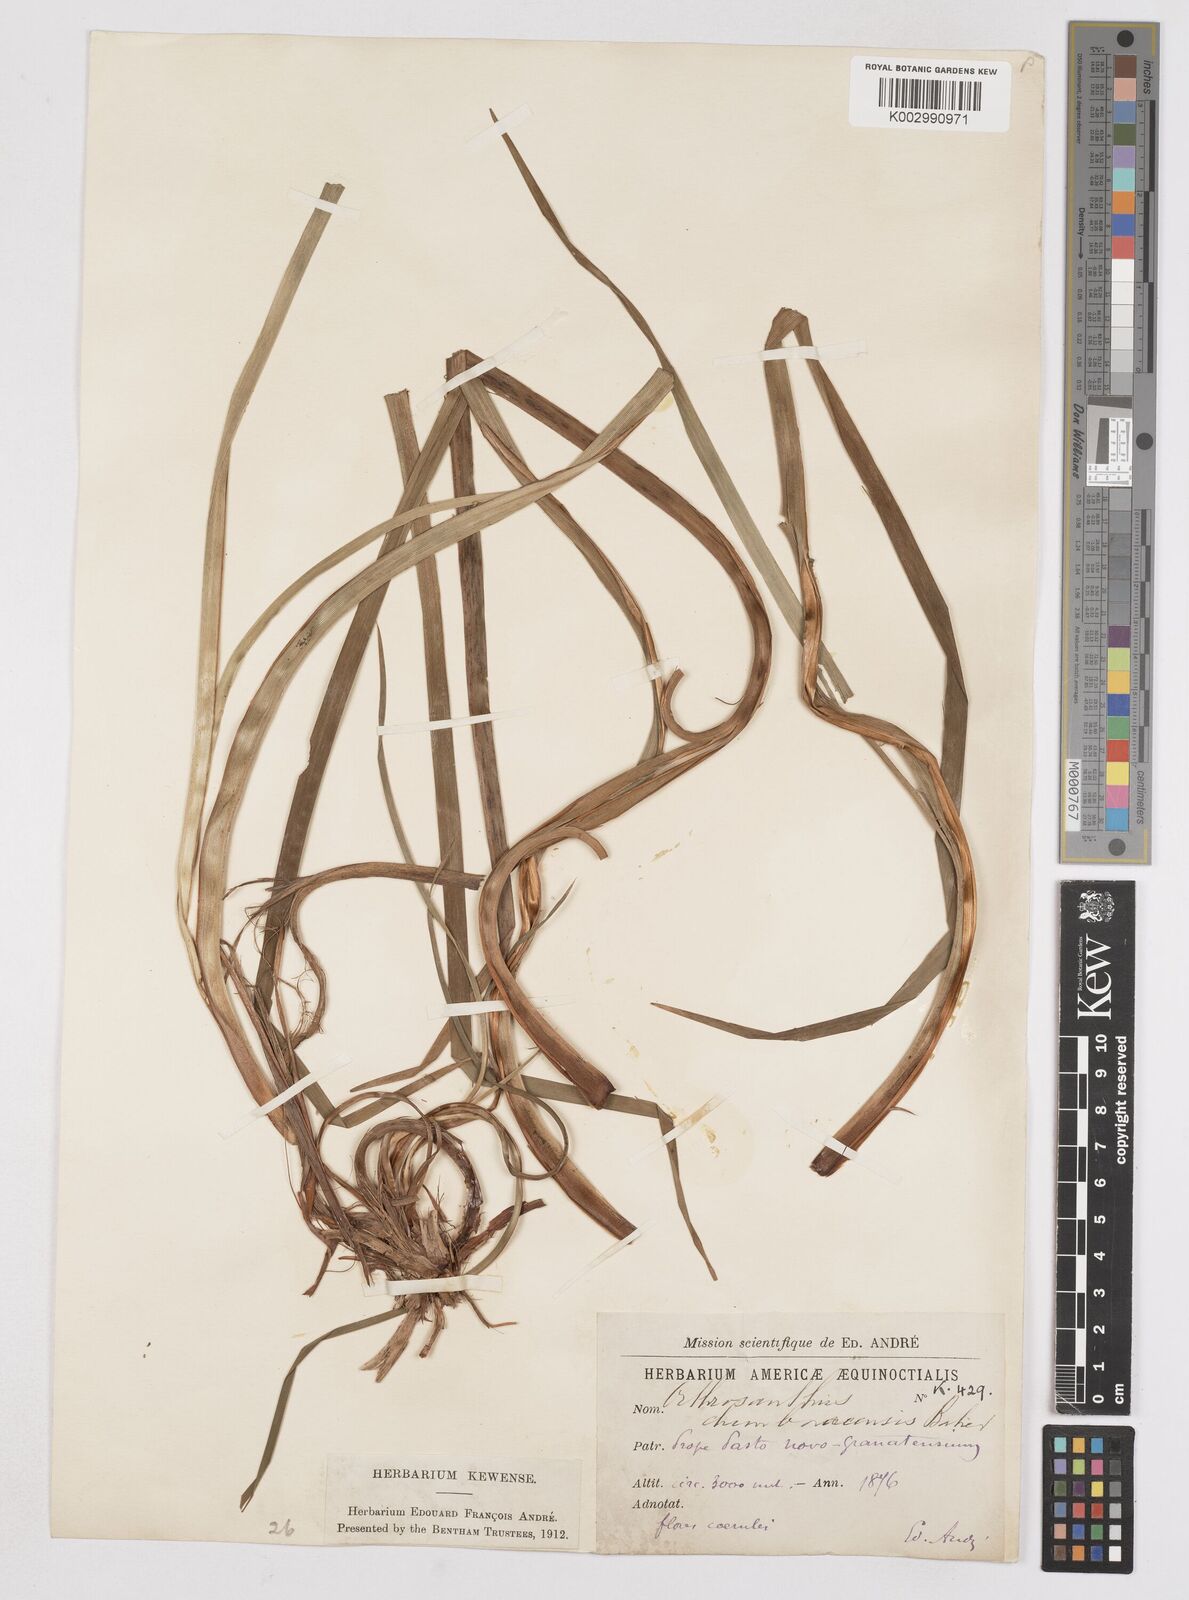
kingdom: Plantae
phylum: Tracheophyta
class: Liliopsida
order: Asparagales
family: Iridaceae
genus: Orthrosanthus
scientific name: Orthrosanthus chimboracensis
